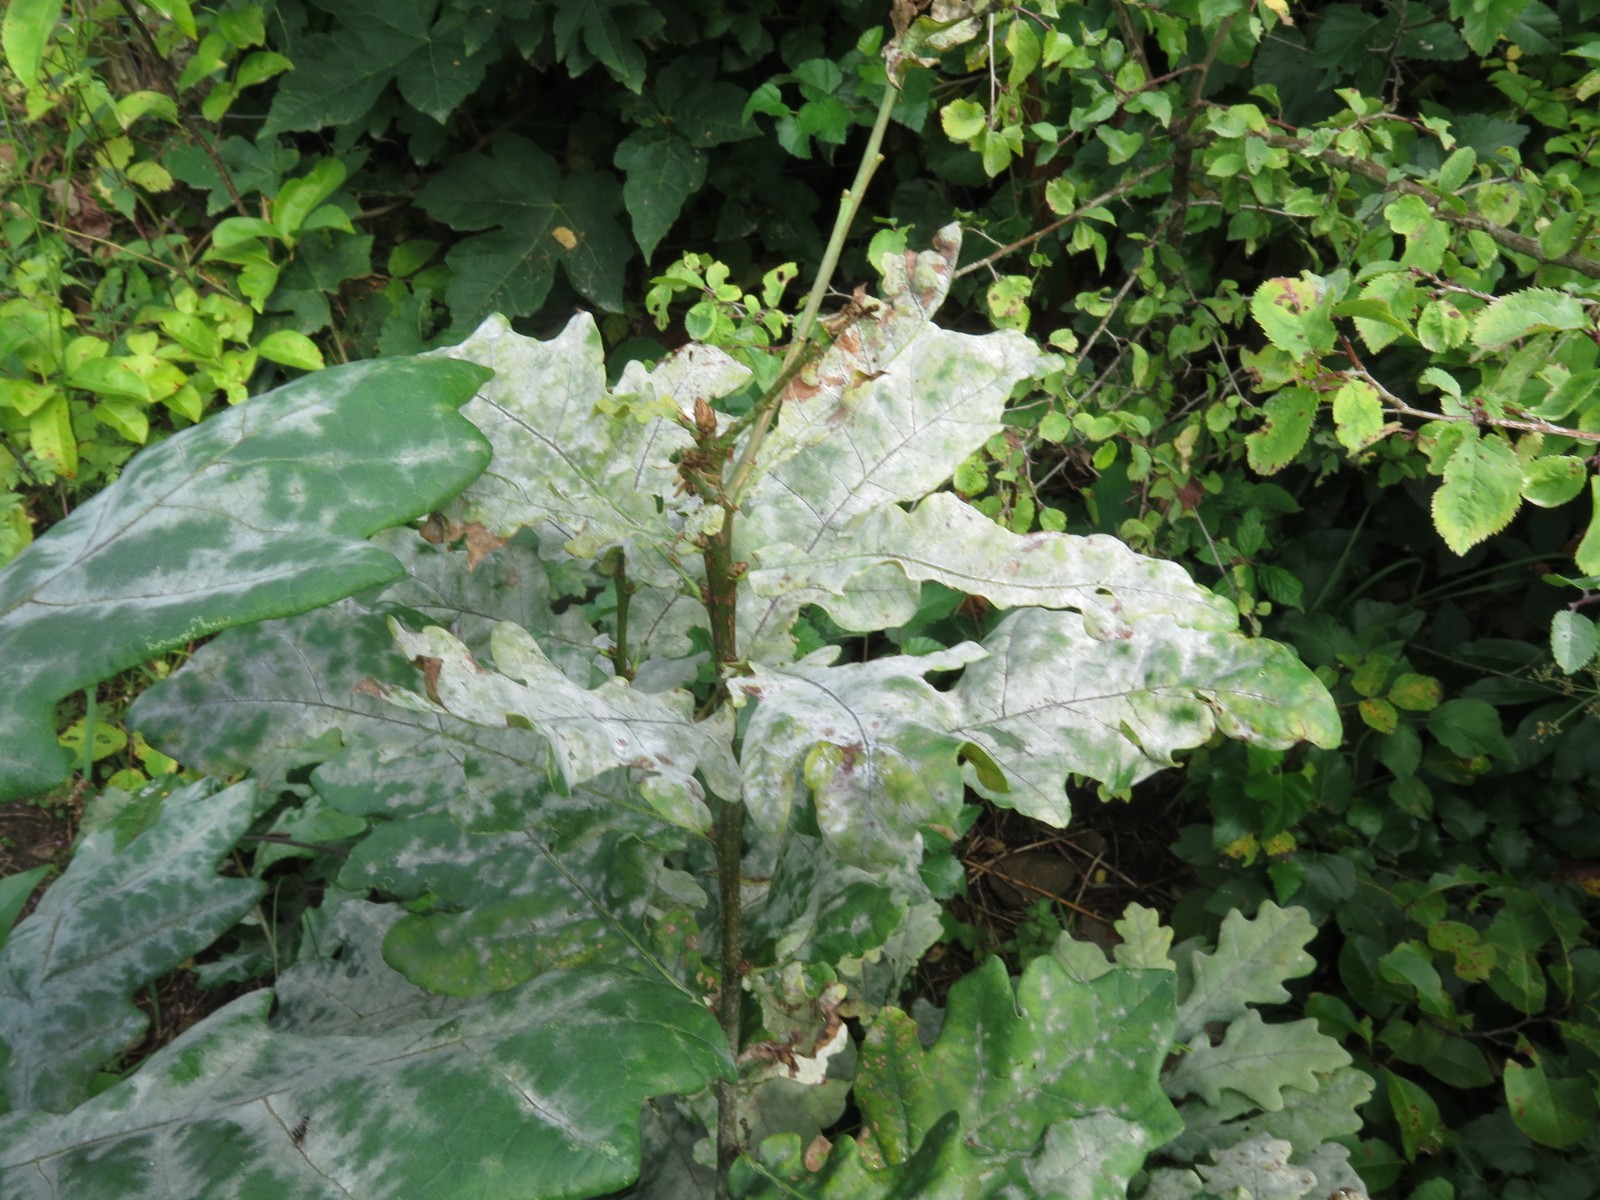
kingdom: Fungi
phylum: Ascomycota
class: Leotiomycetes
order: Helotiales
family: Erysiphaceae
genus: Erysiphe
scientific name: Erysiphe alphitoides
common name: ege-meldug
